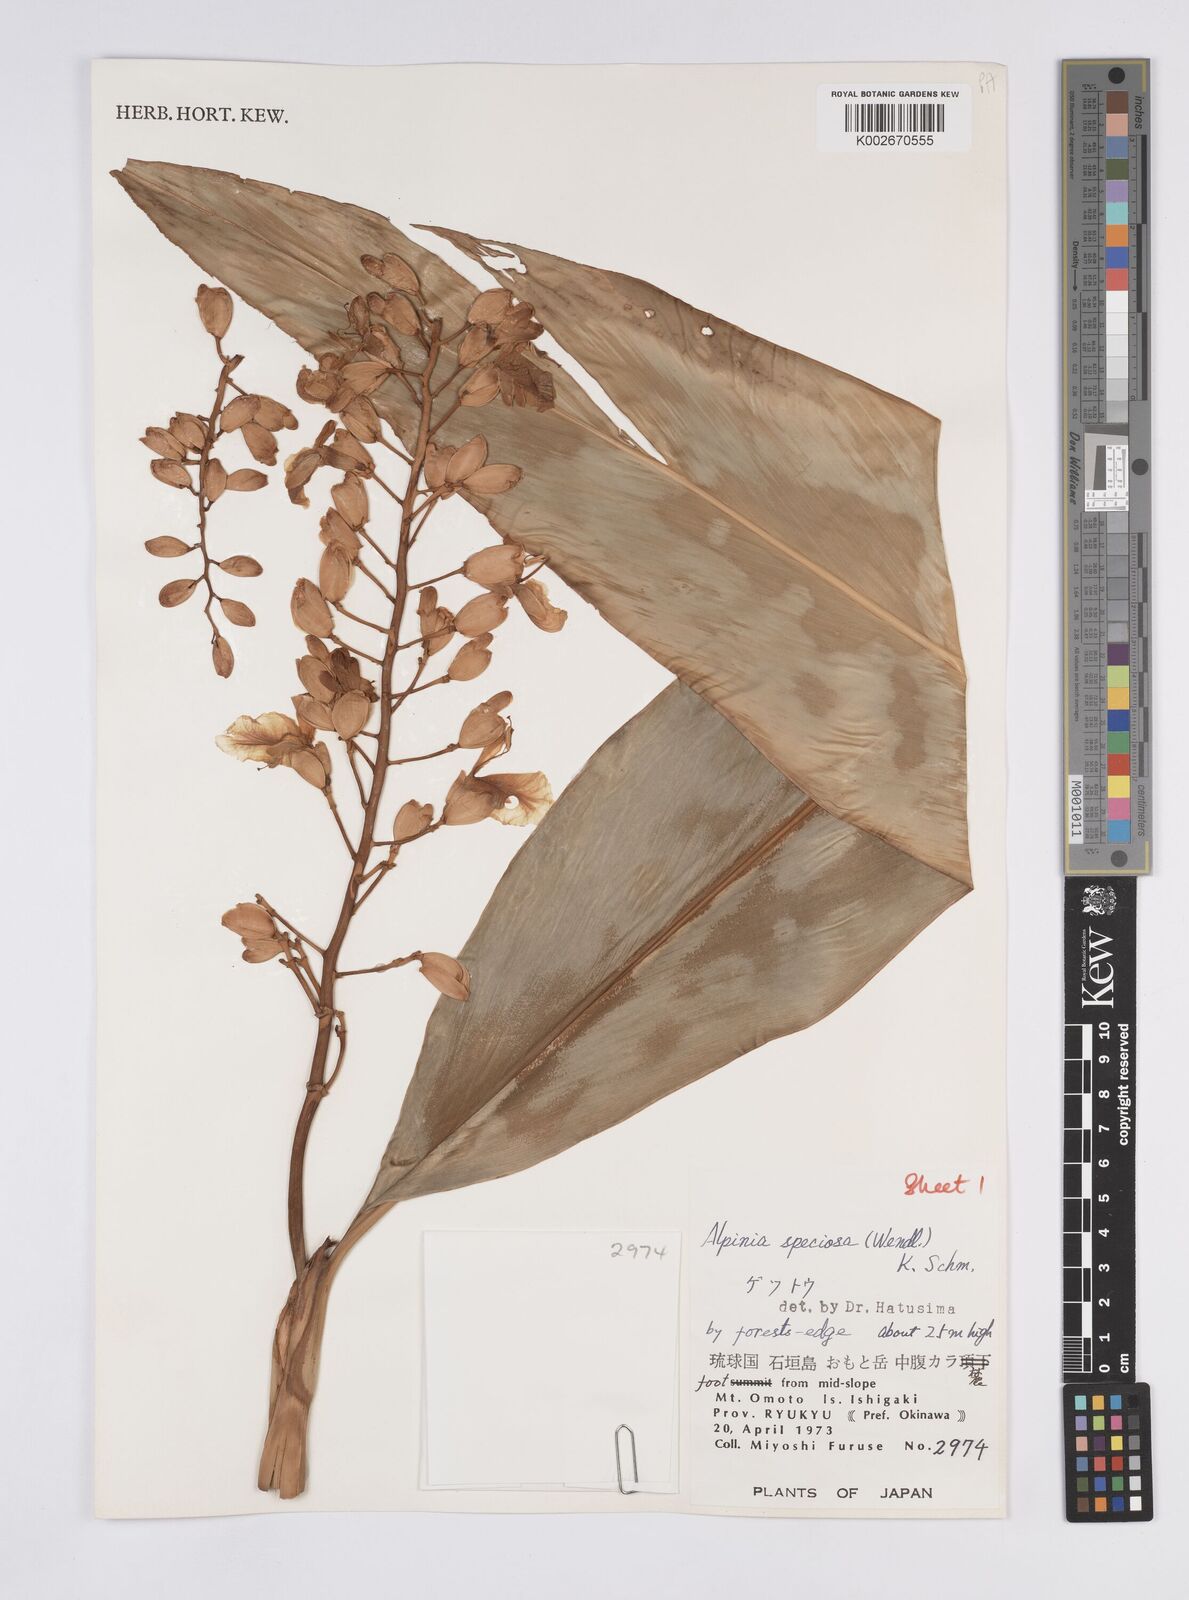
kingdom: Plantae
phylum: Tracheophyta
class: Liliopsida
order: Zingiberales
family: Zingiberaceae
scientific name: Zingiberaceae
